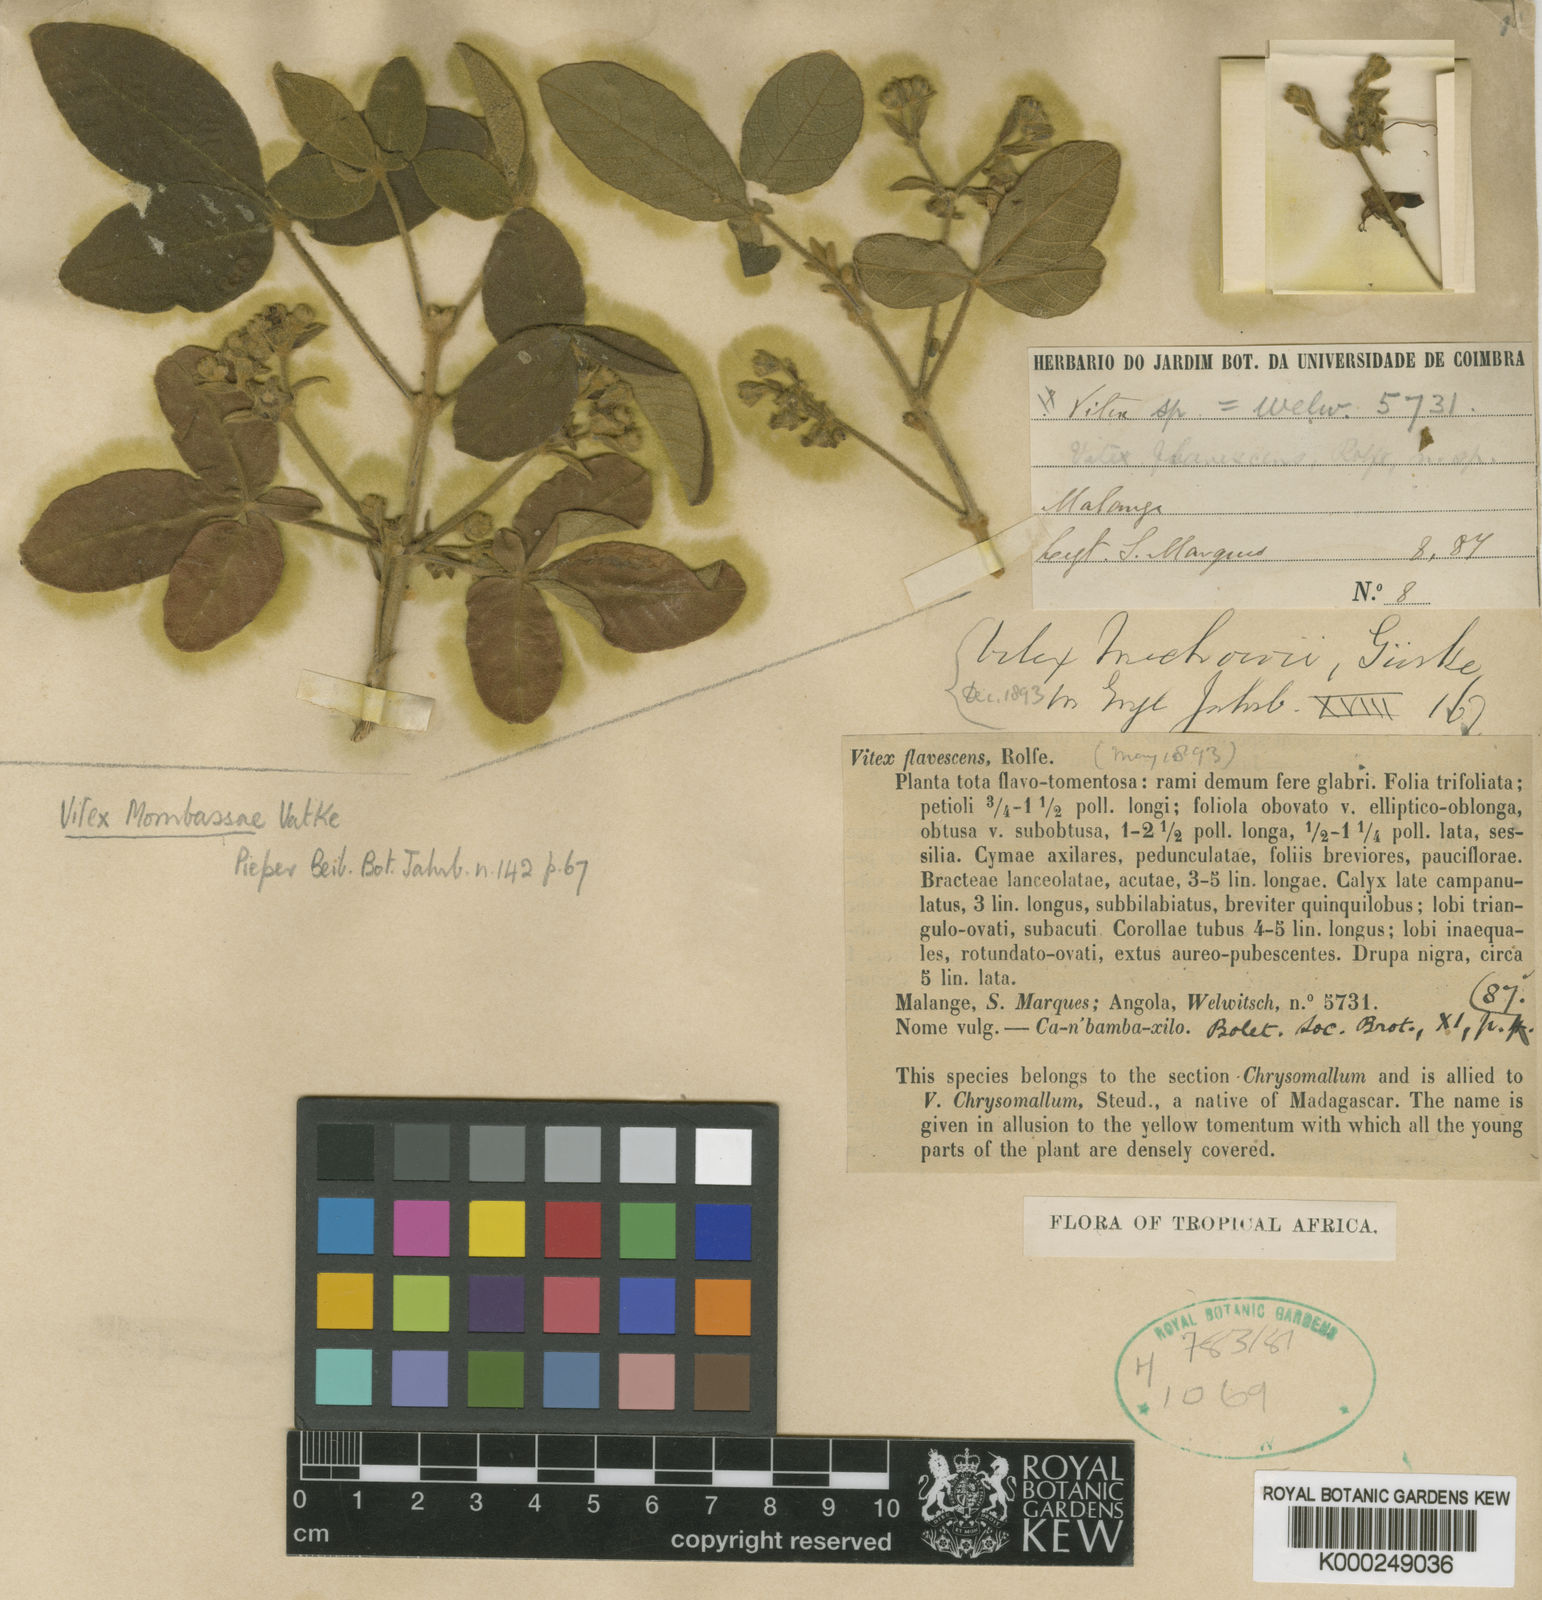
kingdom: Plantae
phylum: Tracheophyta
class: Magnoliopsida
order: Lamiales
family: Lamiaceae
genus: Vitex
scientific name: Vitex mombassae
